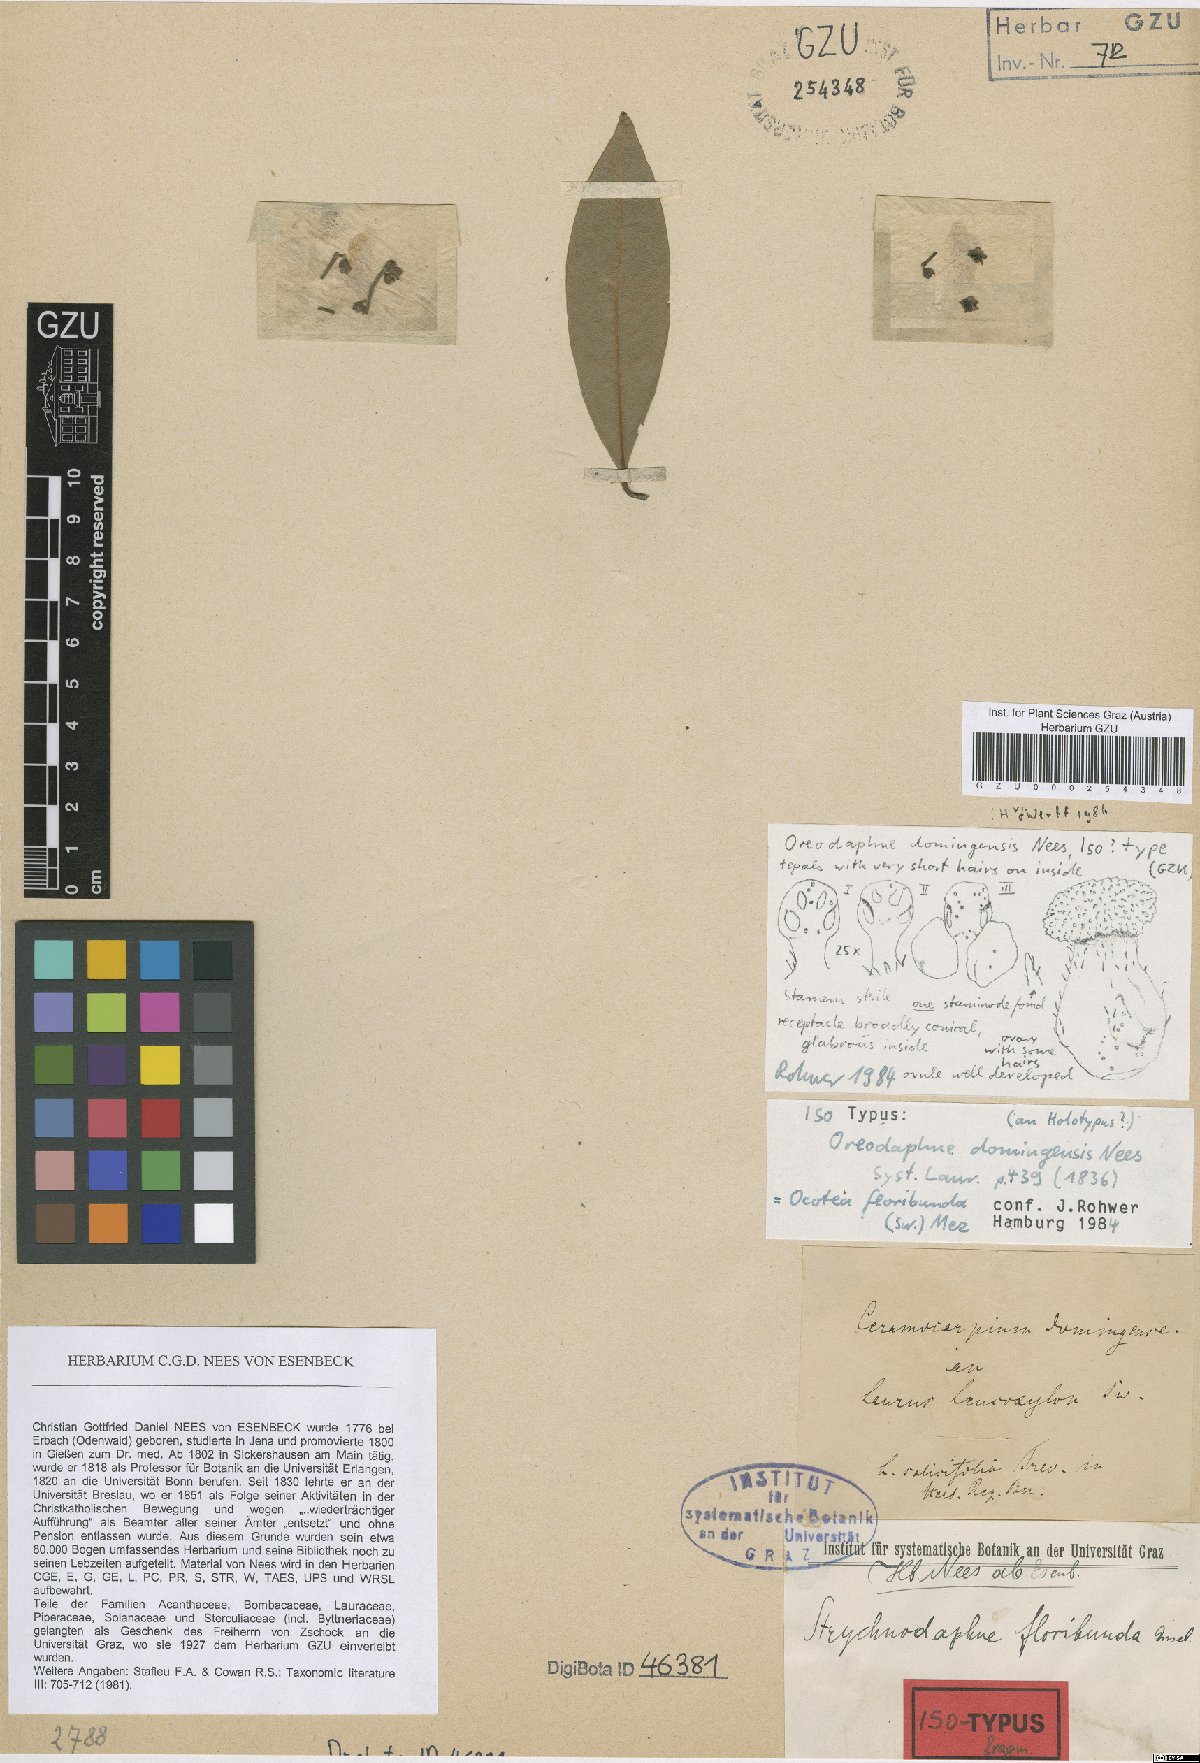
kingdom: Plantae
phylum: Tracheophyta
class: Magnoliopsida
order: Laurales
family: Lauraceae
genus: Ocotea
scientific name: Ocotea floribunda
